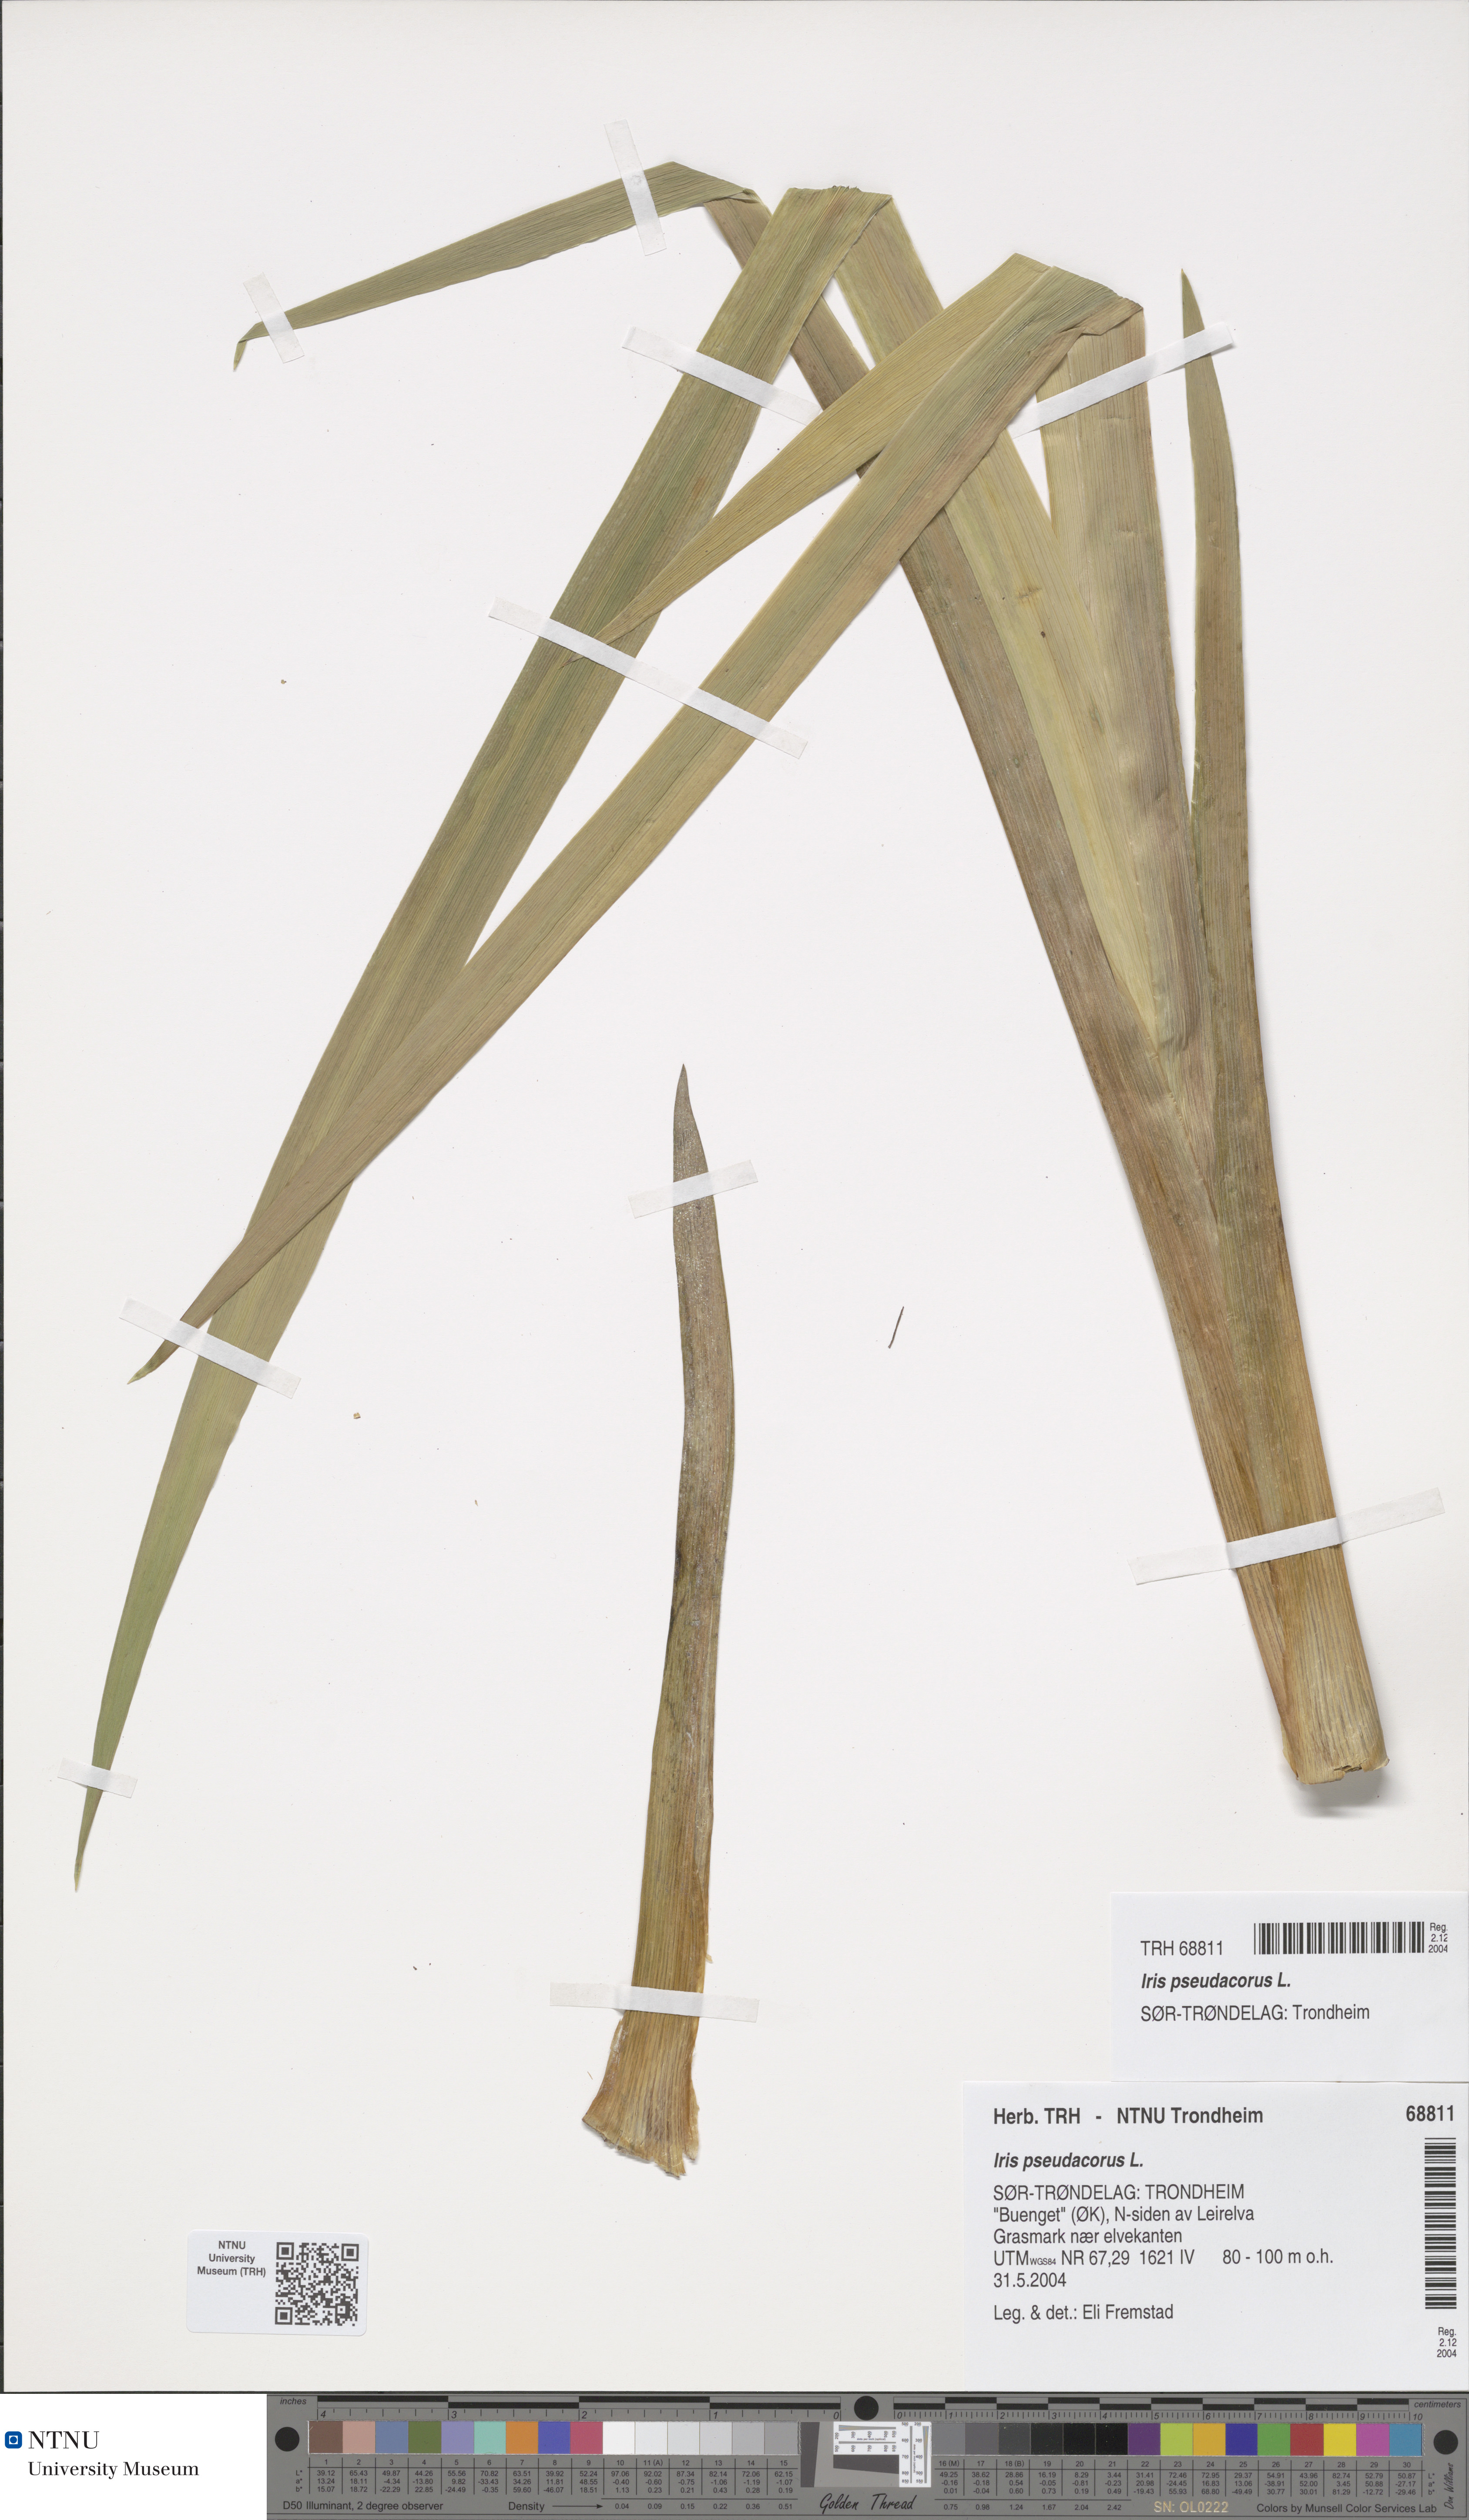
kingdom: Plantae
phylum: Tracheophyta
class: Liliopsida
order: Asparagales
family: Iridaceae
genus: Iris
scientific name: Iris pseudacorus
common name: Yellow flag
